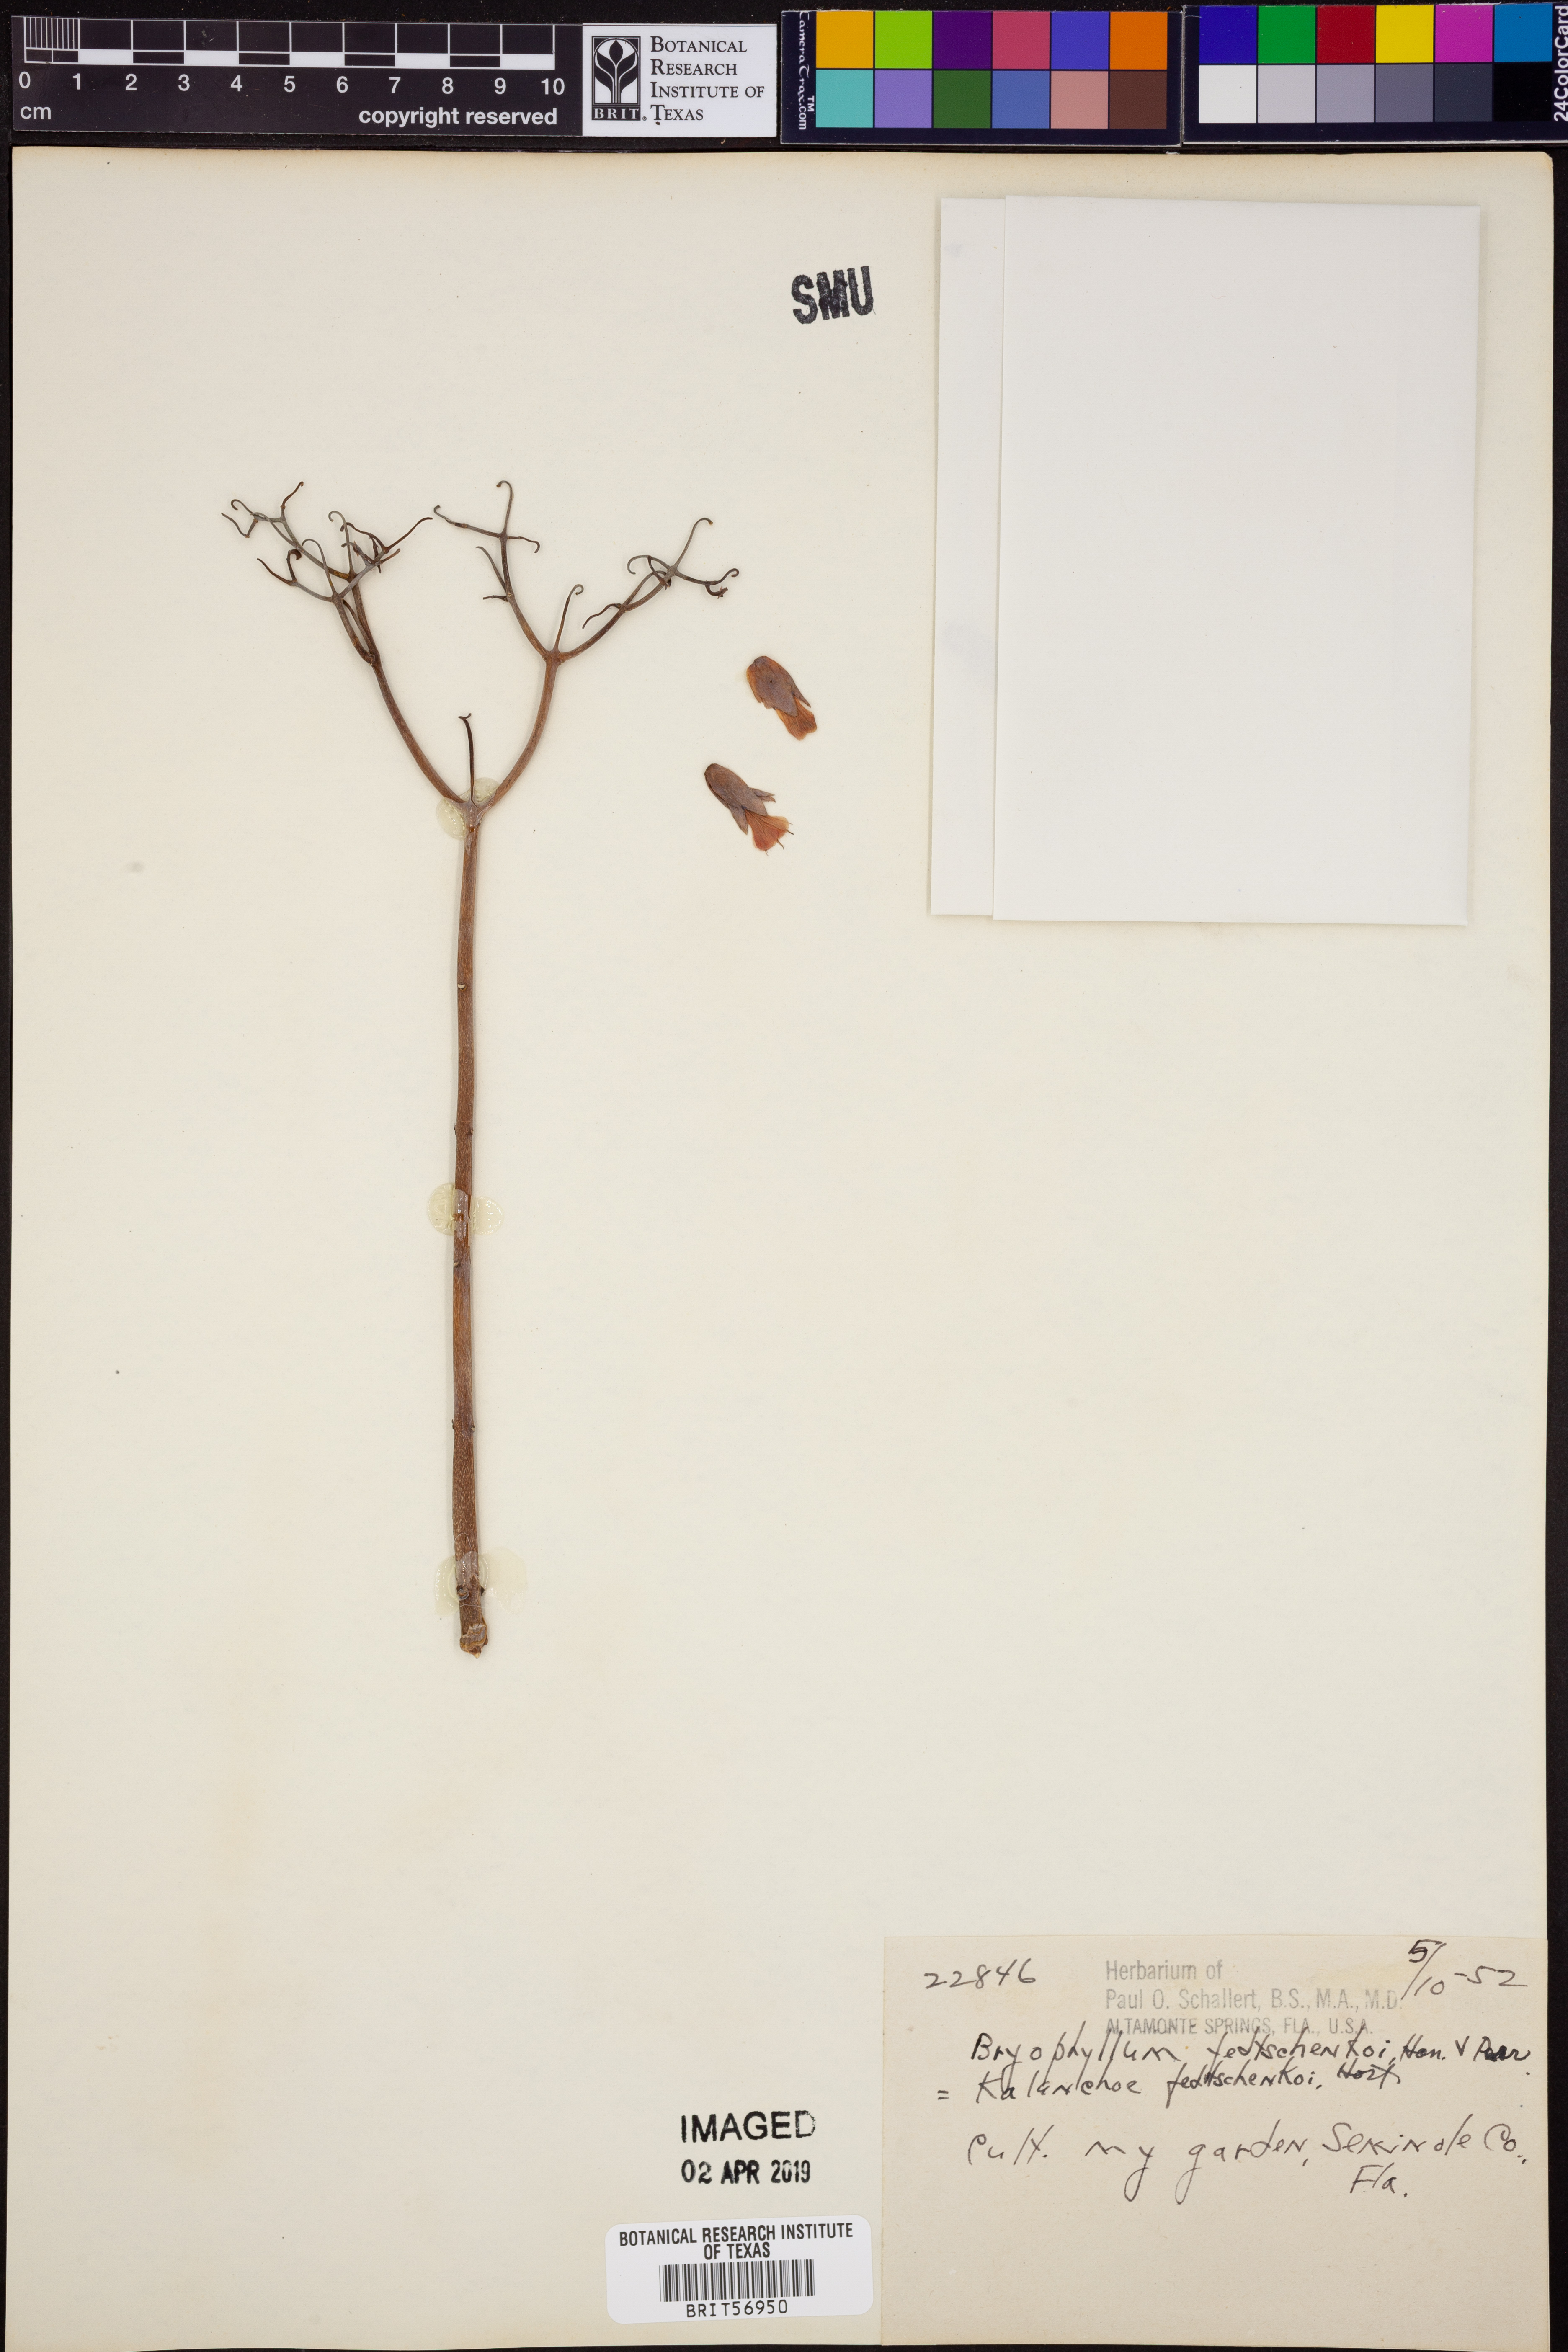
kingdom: Plantae
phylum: Tracheophyta
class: Magnoliopsida
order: Saxifragales
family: Crassulaceae
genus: Kalanchoe
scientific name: Kalanchoe fedtschenkoi
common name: Lavender scallops
